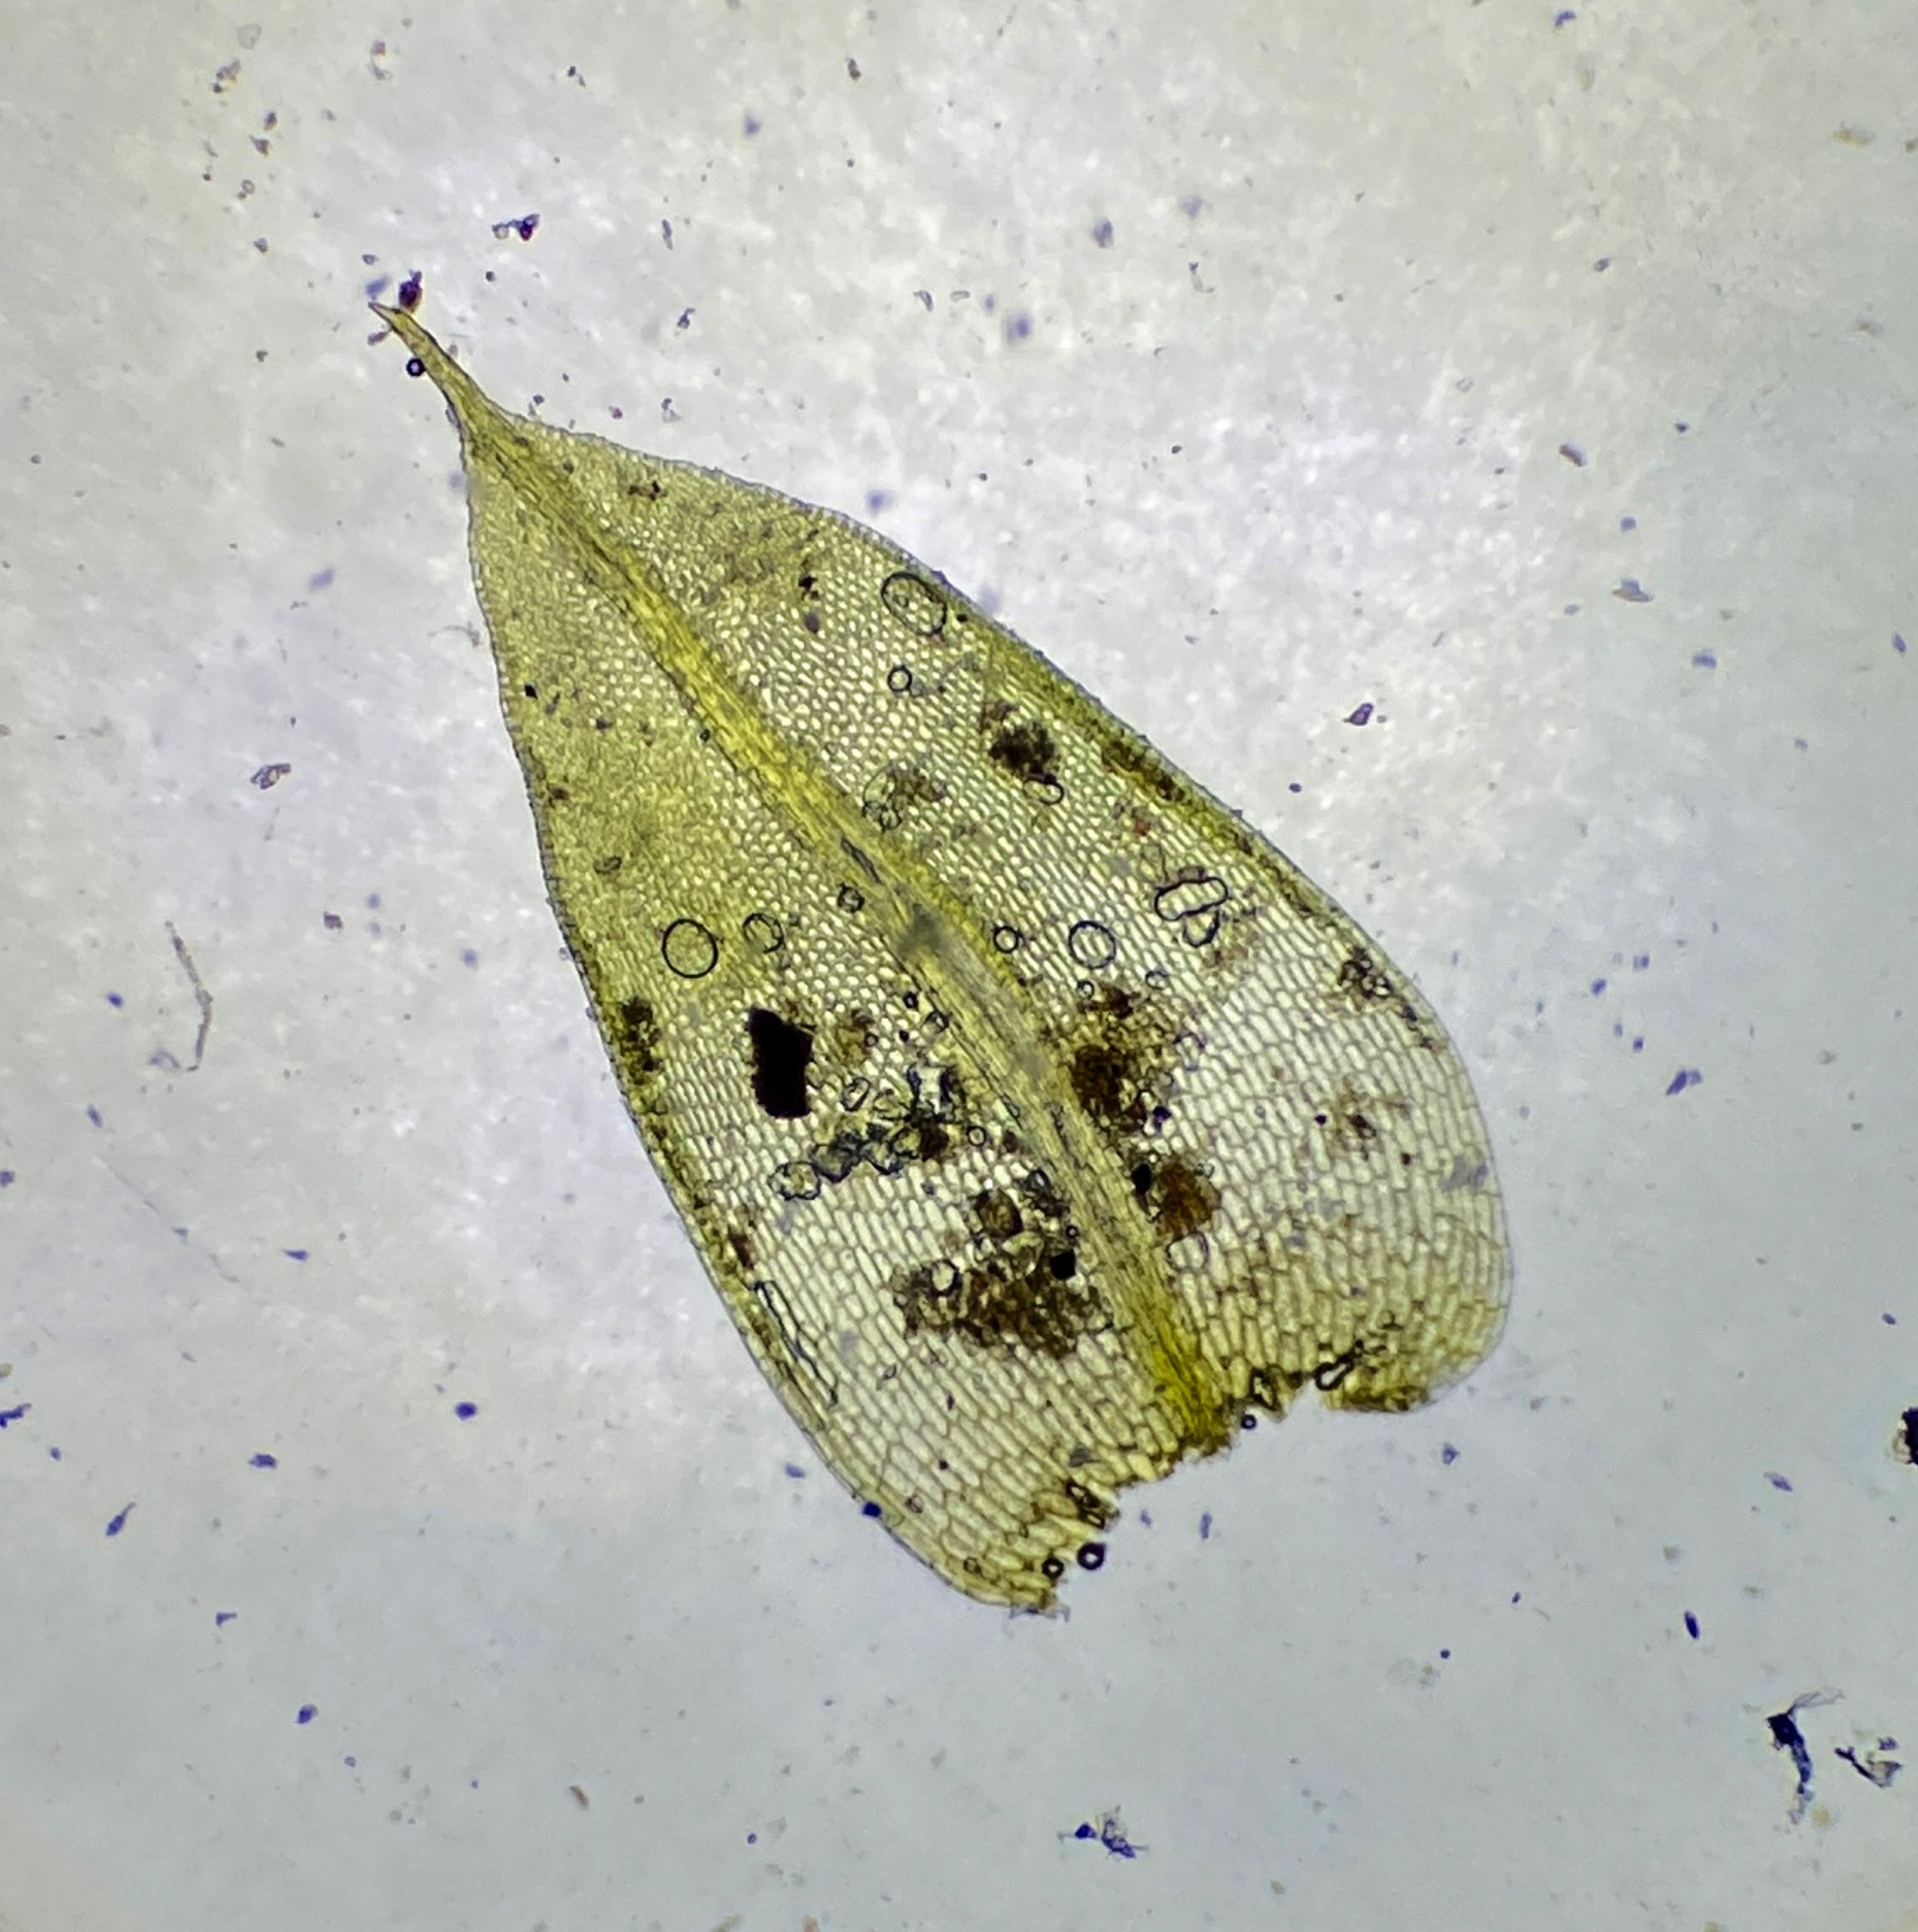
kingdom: Plantae
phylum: Bryophyta
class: Bryopsida
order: Pottiales
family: Pottiaceae
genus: Tortula
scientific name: Tortula protobryoides
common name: Lukket bægermos
